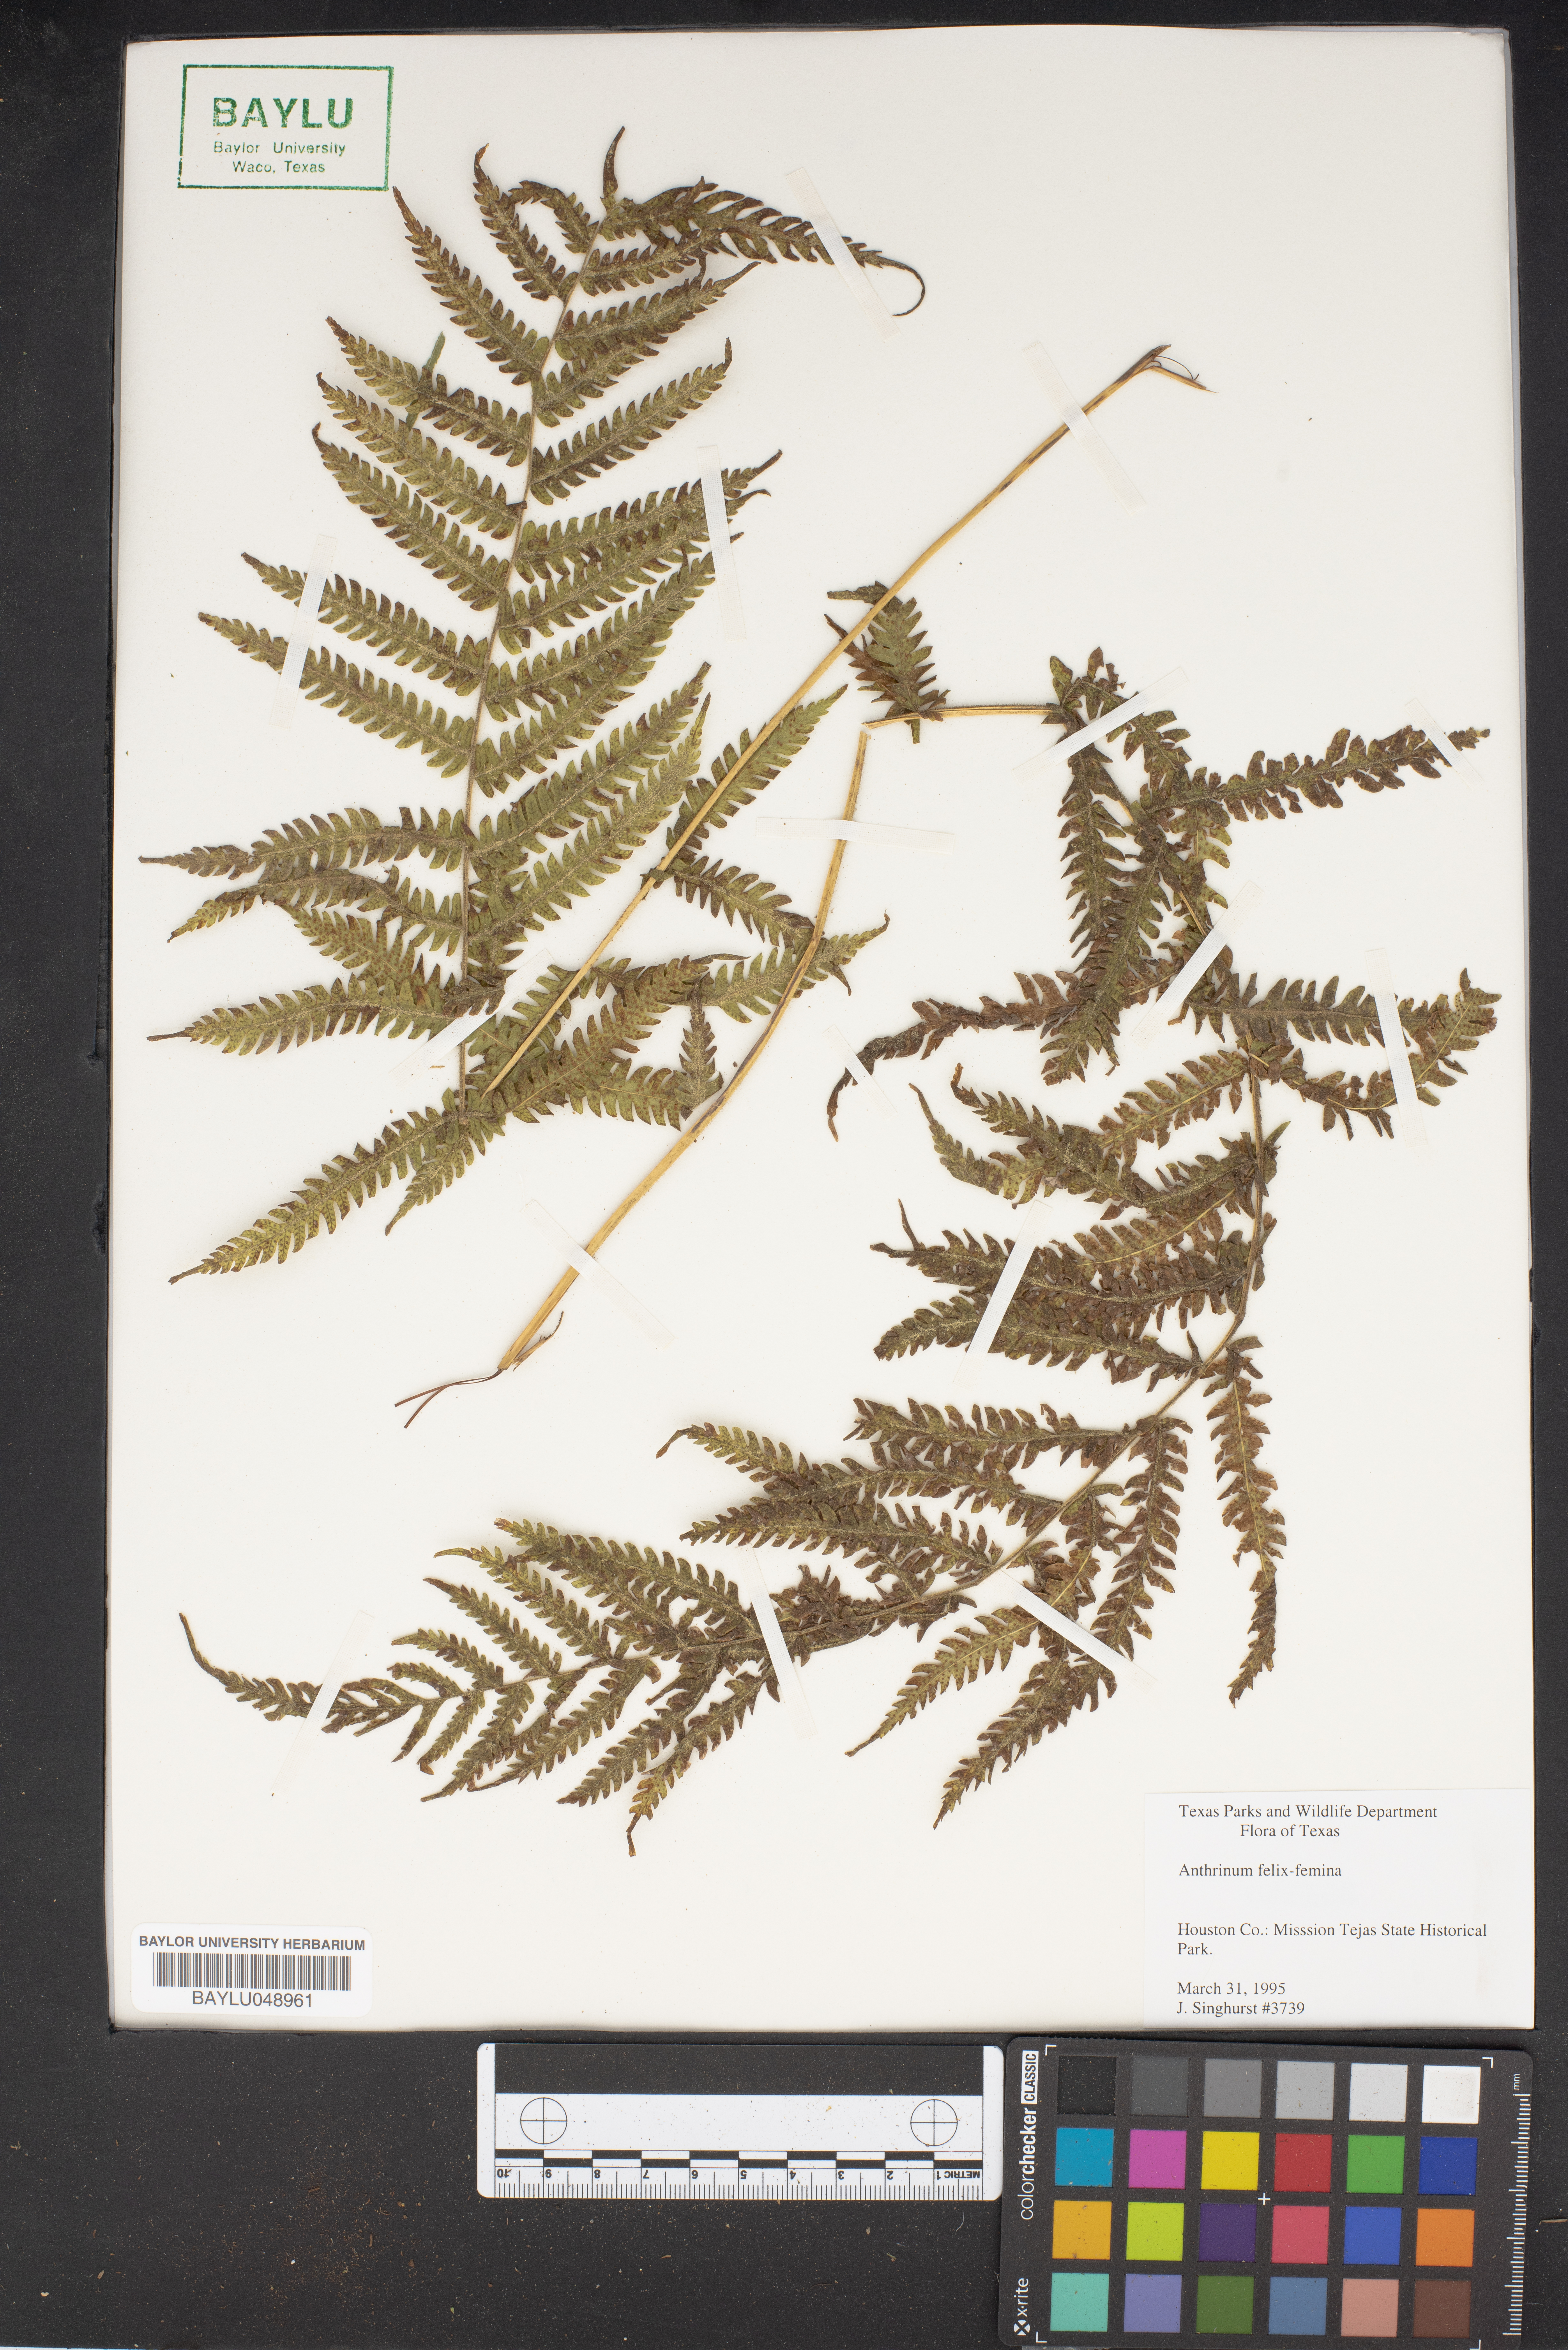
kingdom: Plantae
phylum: Tracheophyta
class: Polypodiopsida
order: Polypodiales
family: Athyriaceae
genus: Athyrium
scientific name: Athyrium filix-femina
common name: Lady fern
